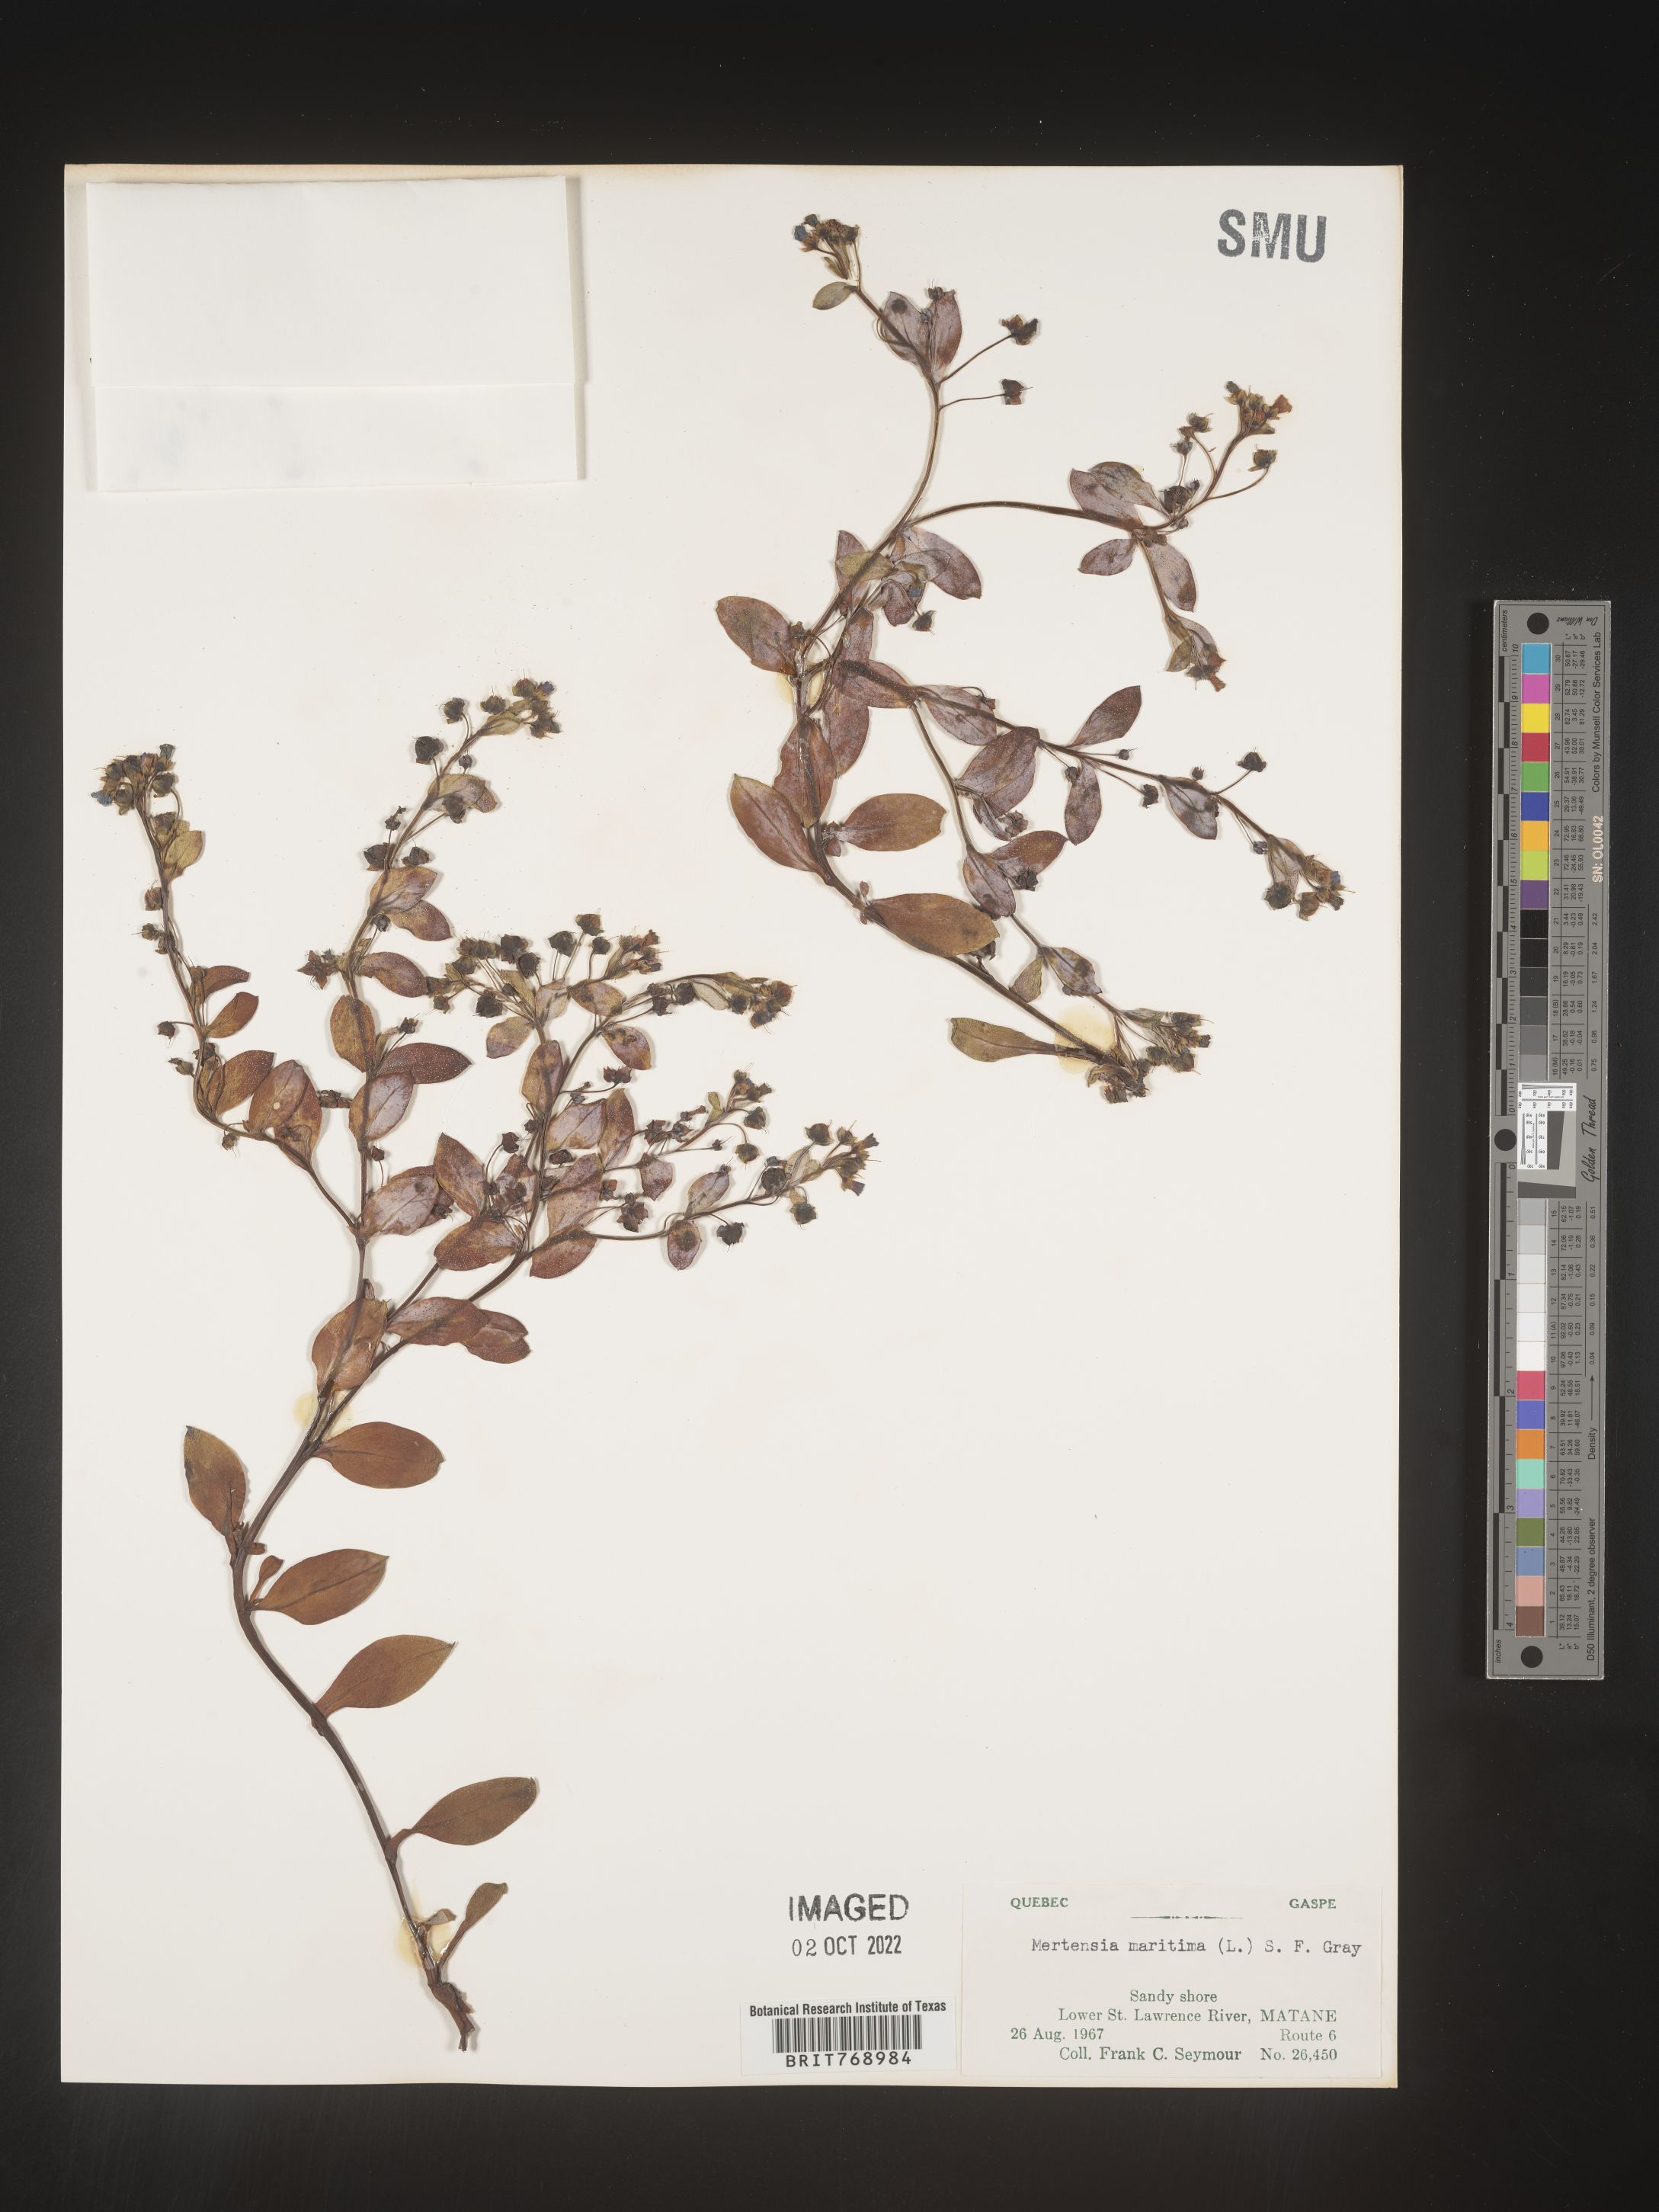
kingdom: Plantae
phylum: Tracheophyta
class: Magnoliopsida
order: Boraginales
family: Boraginaceae
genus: Mertensia
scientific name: Mertensia
